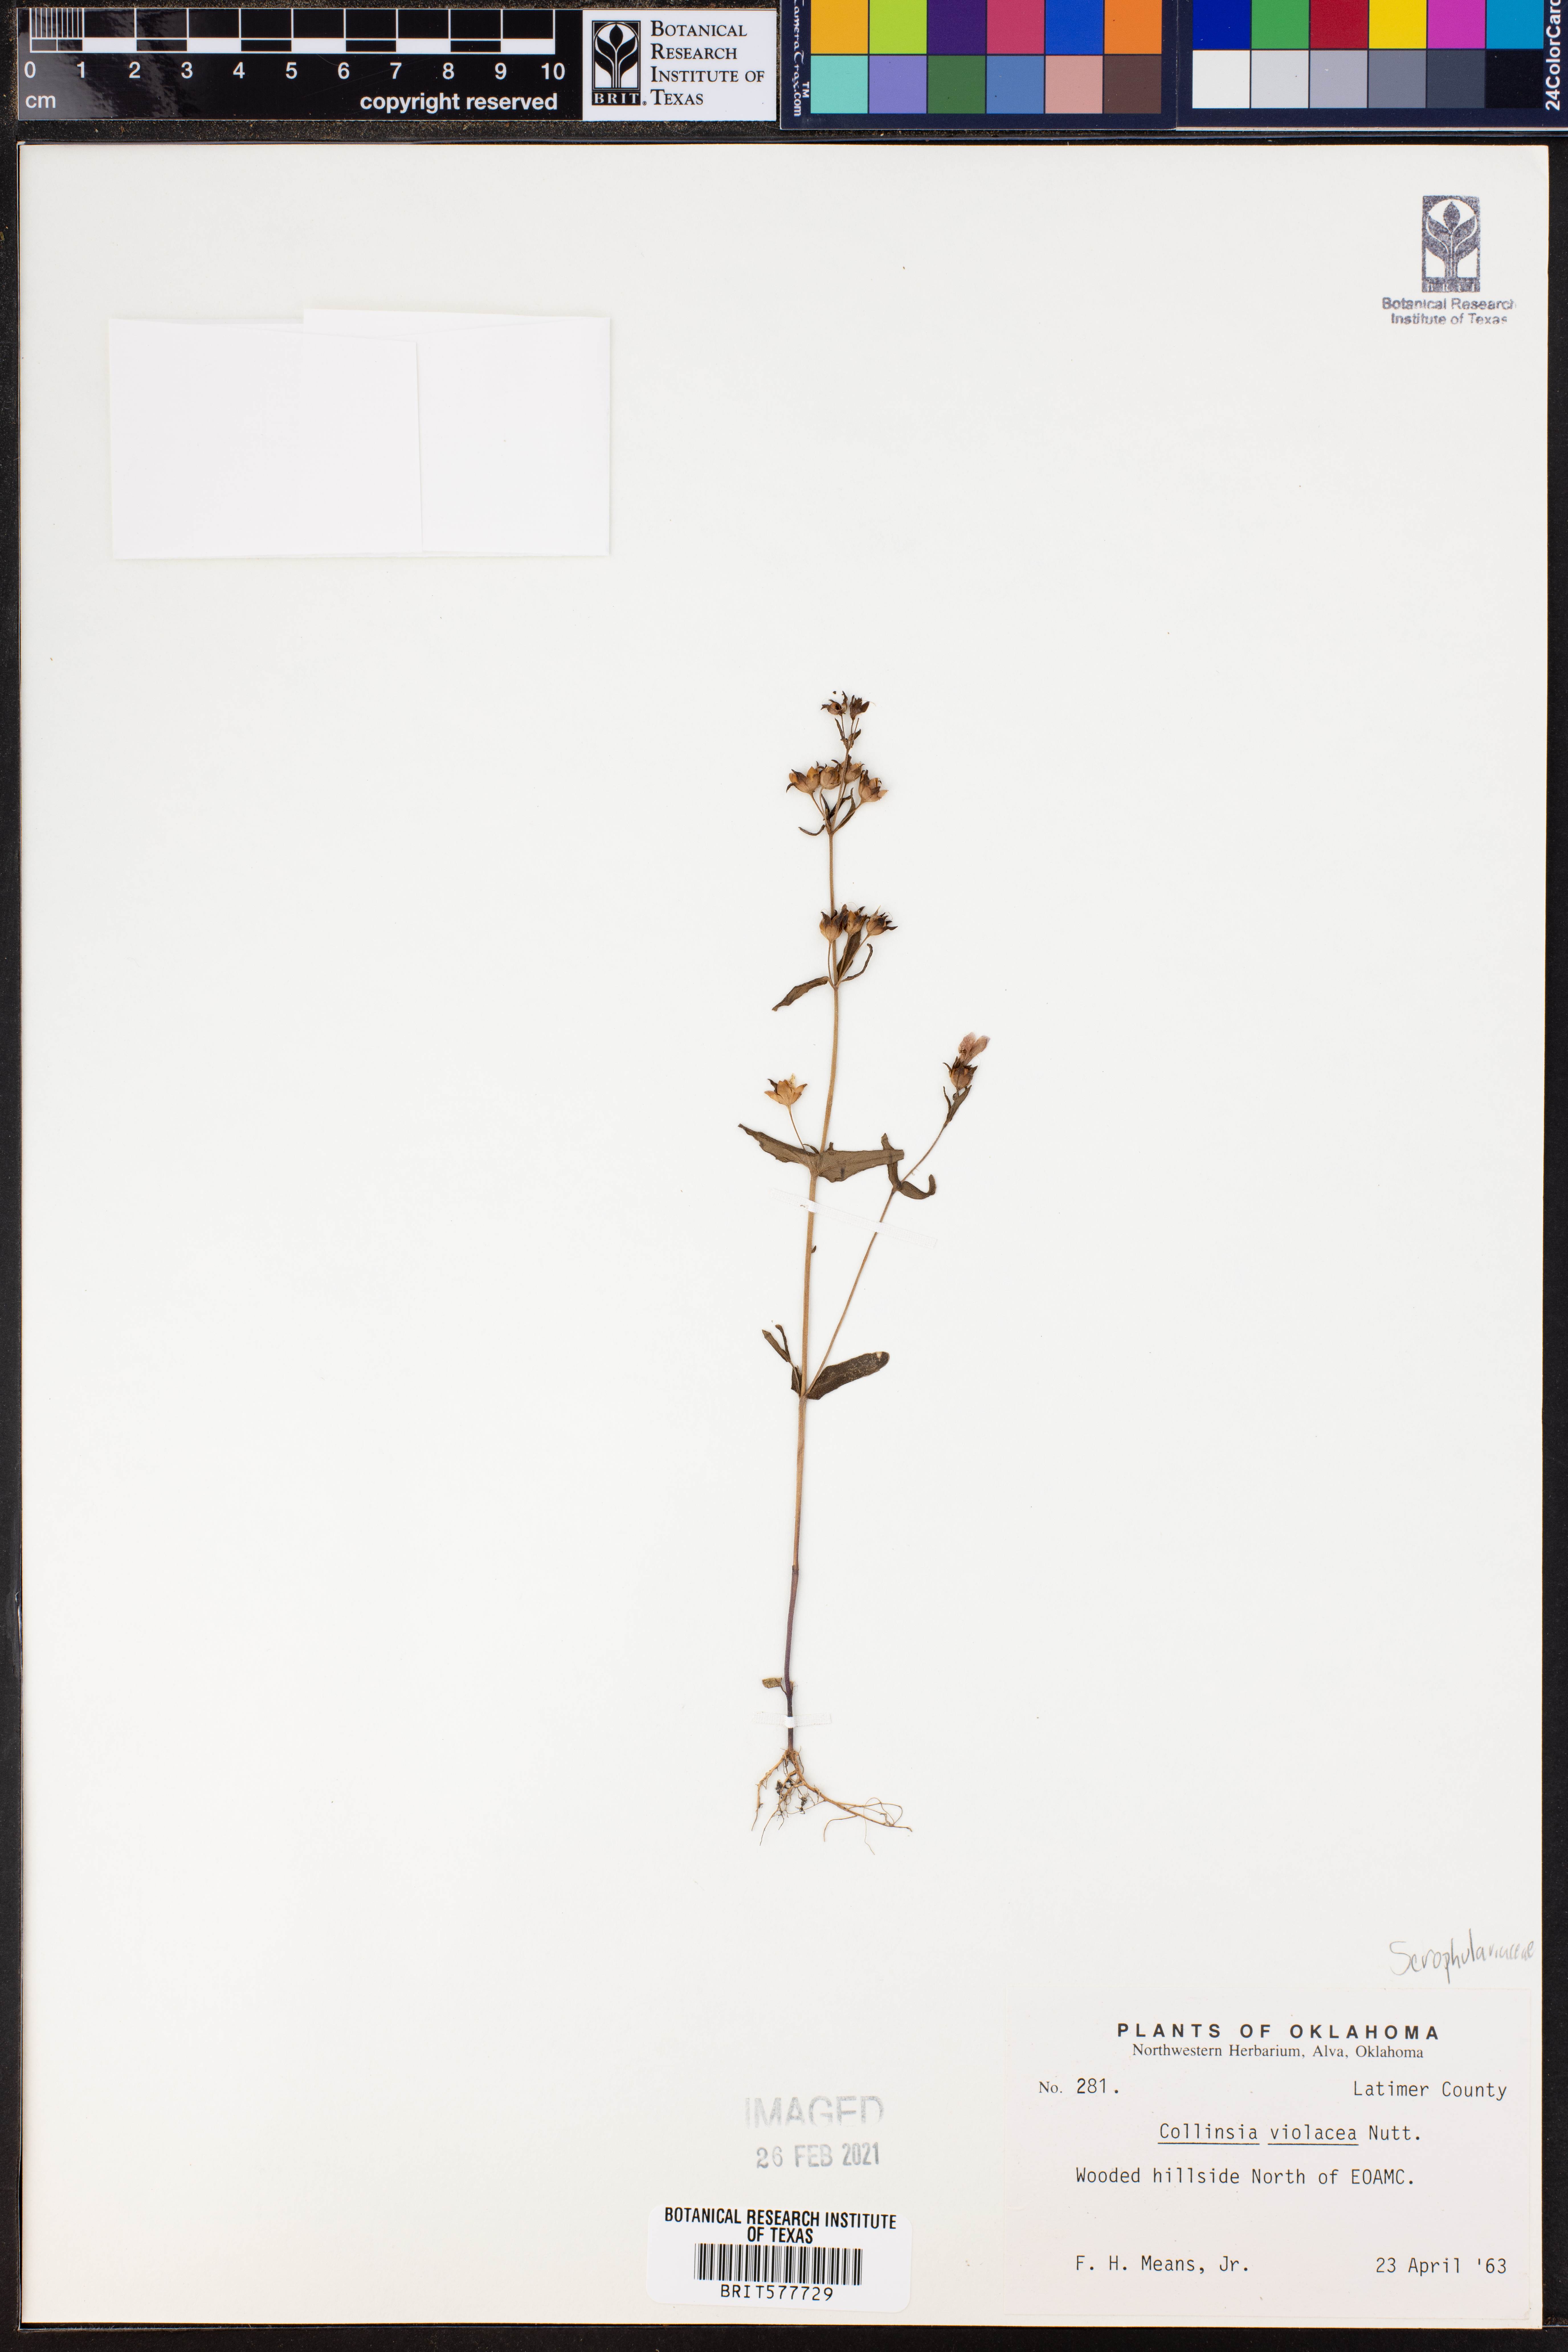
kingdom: Plantae
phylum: Tracheophyta
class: Magnoliopsida
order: Lamiales
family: Plantaginaceae
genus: Collinsia
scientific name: Collinsia violacea
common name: Violet collinsia
